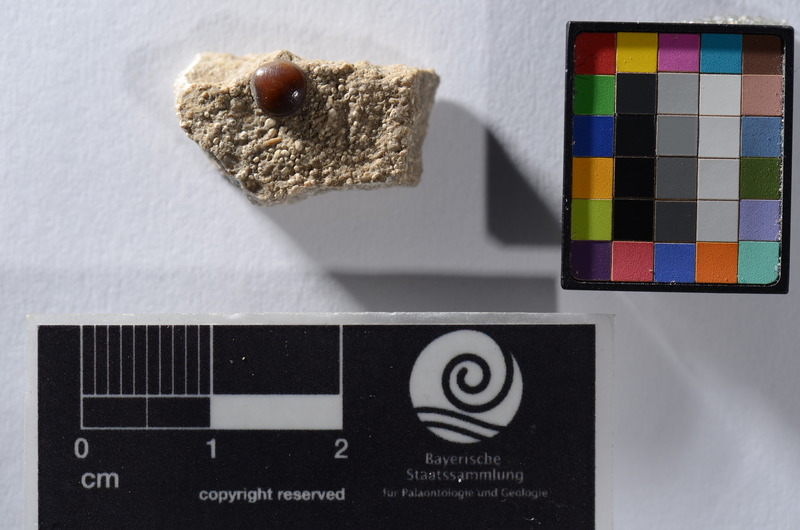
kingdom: Animalia
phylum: Chordata
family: Pycnodontidae
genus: Sphaerodus
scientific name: Sphaerodus
